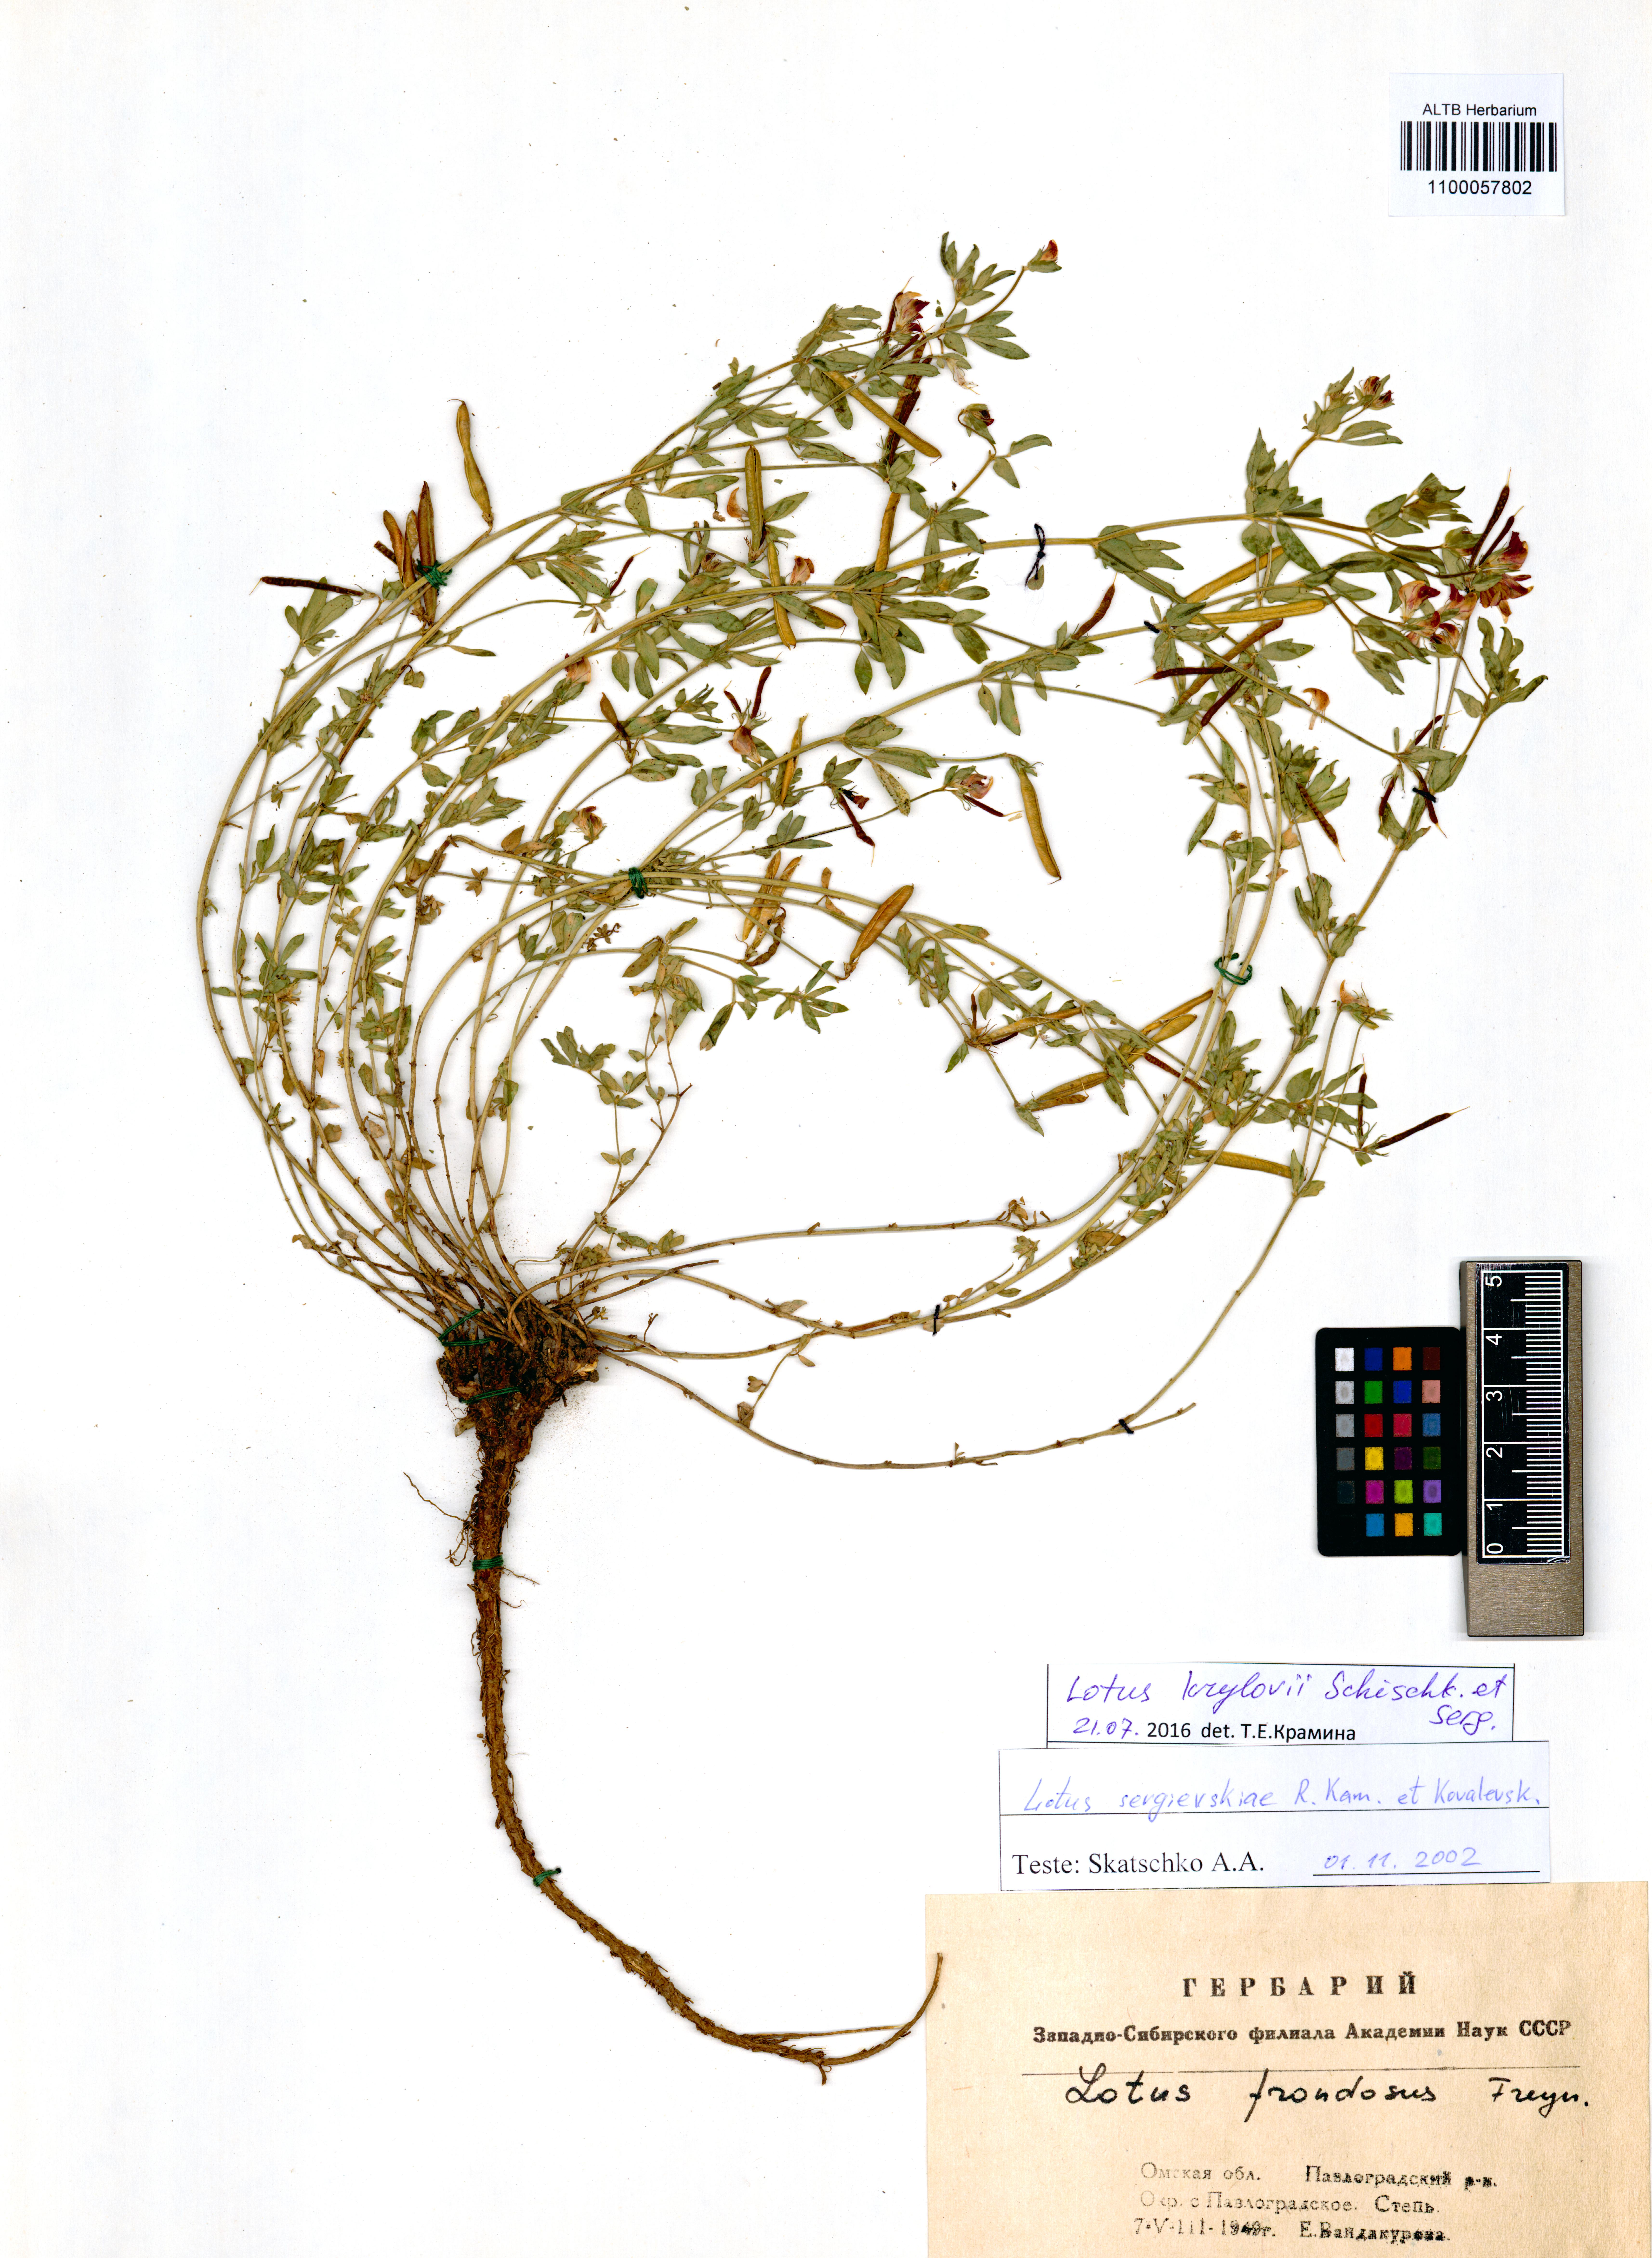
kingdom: Plantae
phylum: Tracheophyta
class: Magnoliopsida
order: Fabales
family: Fabaceae
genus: Lotus
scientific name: Lotus krylovii
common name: Krylov's bird's-foot trefoil
